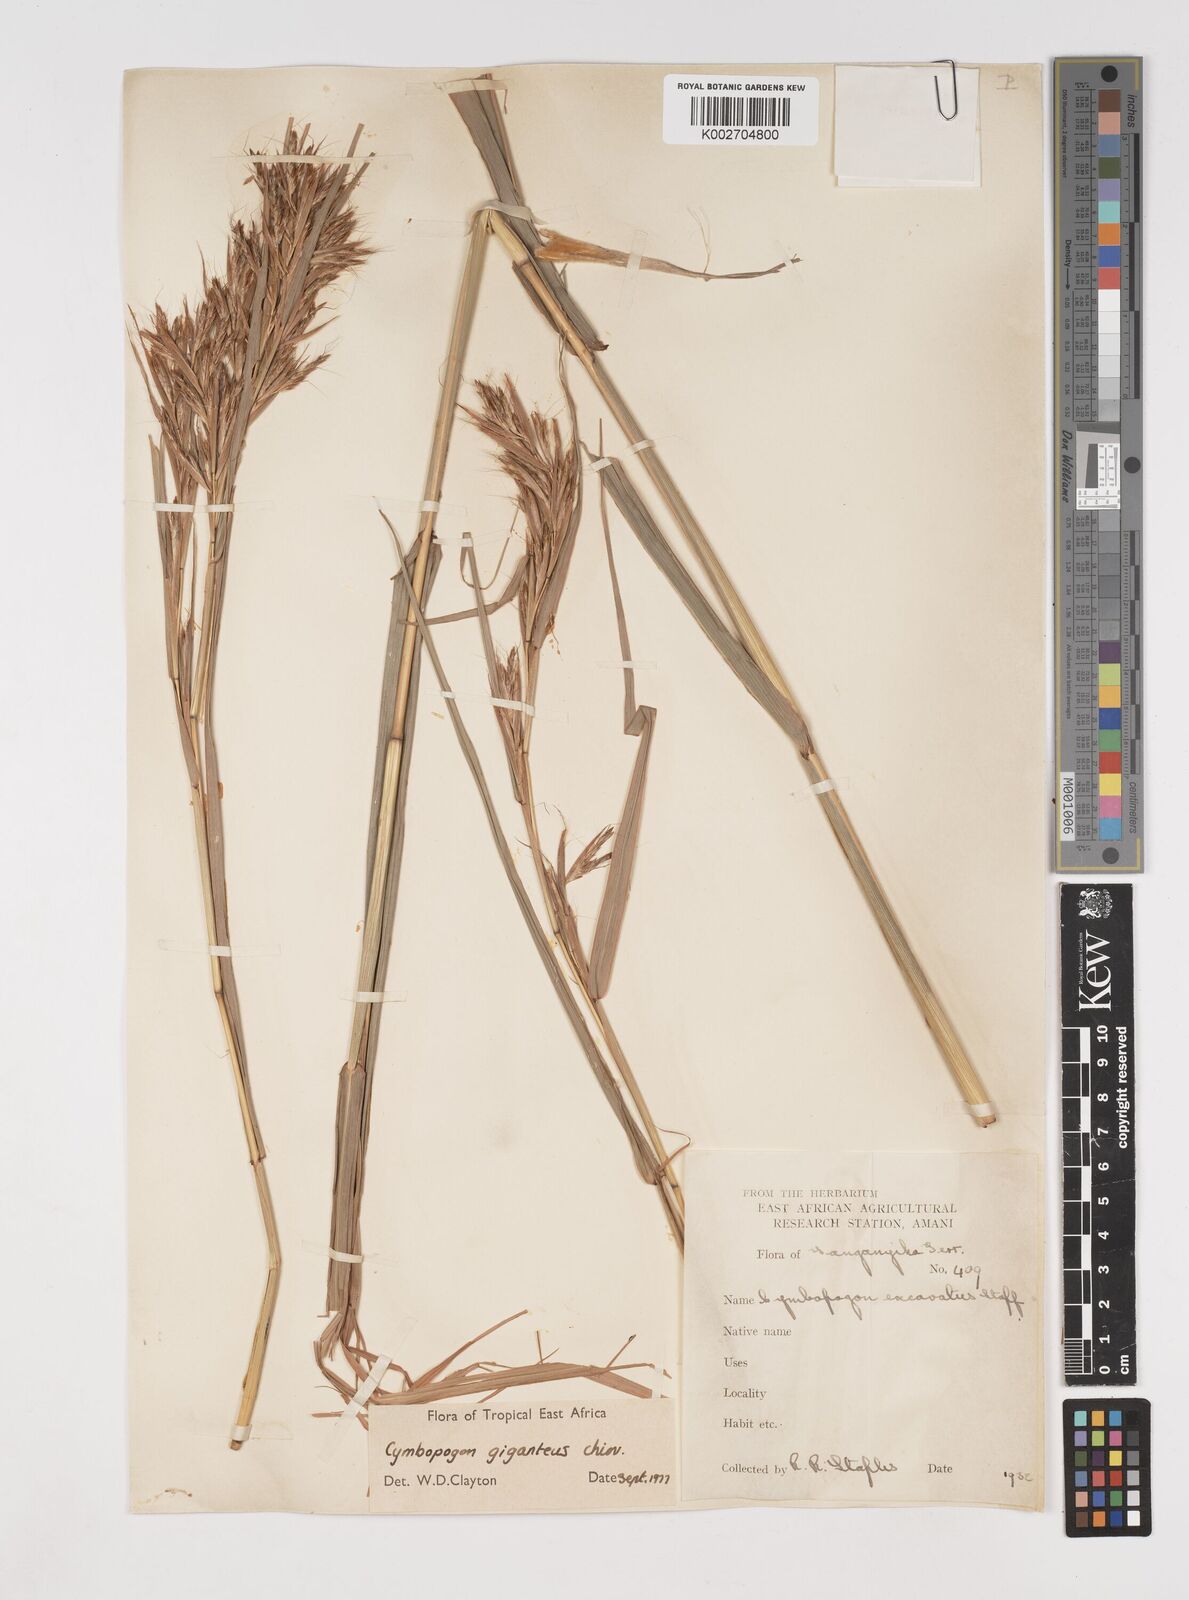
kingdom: Plantae
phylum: Tracheophyta
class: Liliopsida
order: Poales
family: Poaceae
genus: Cymbopogon
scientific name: Cymbopogon giganteus
